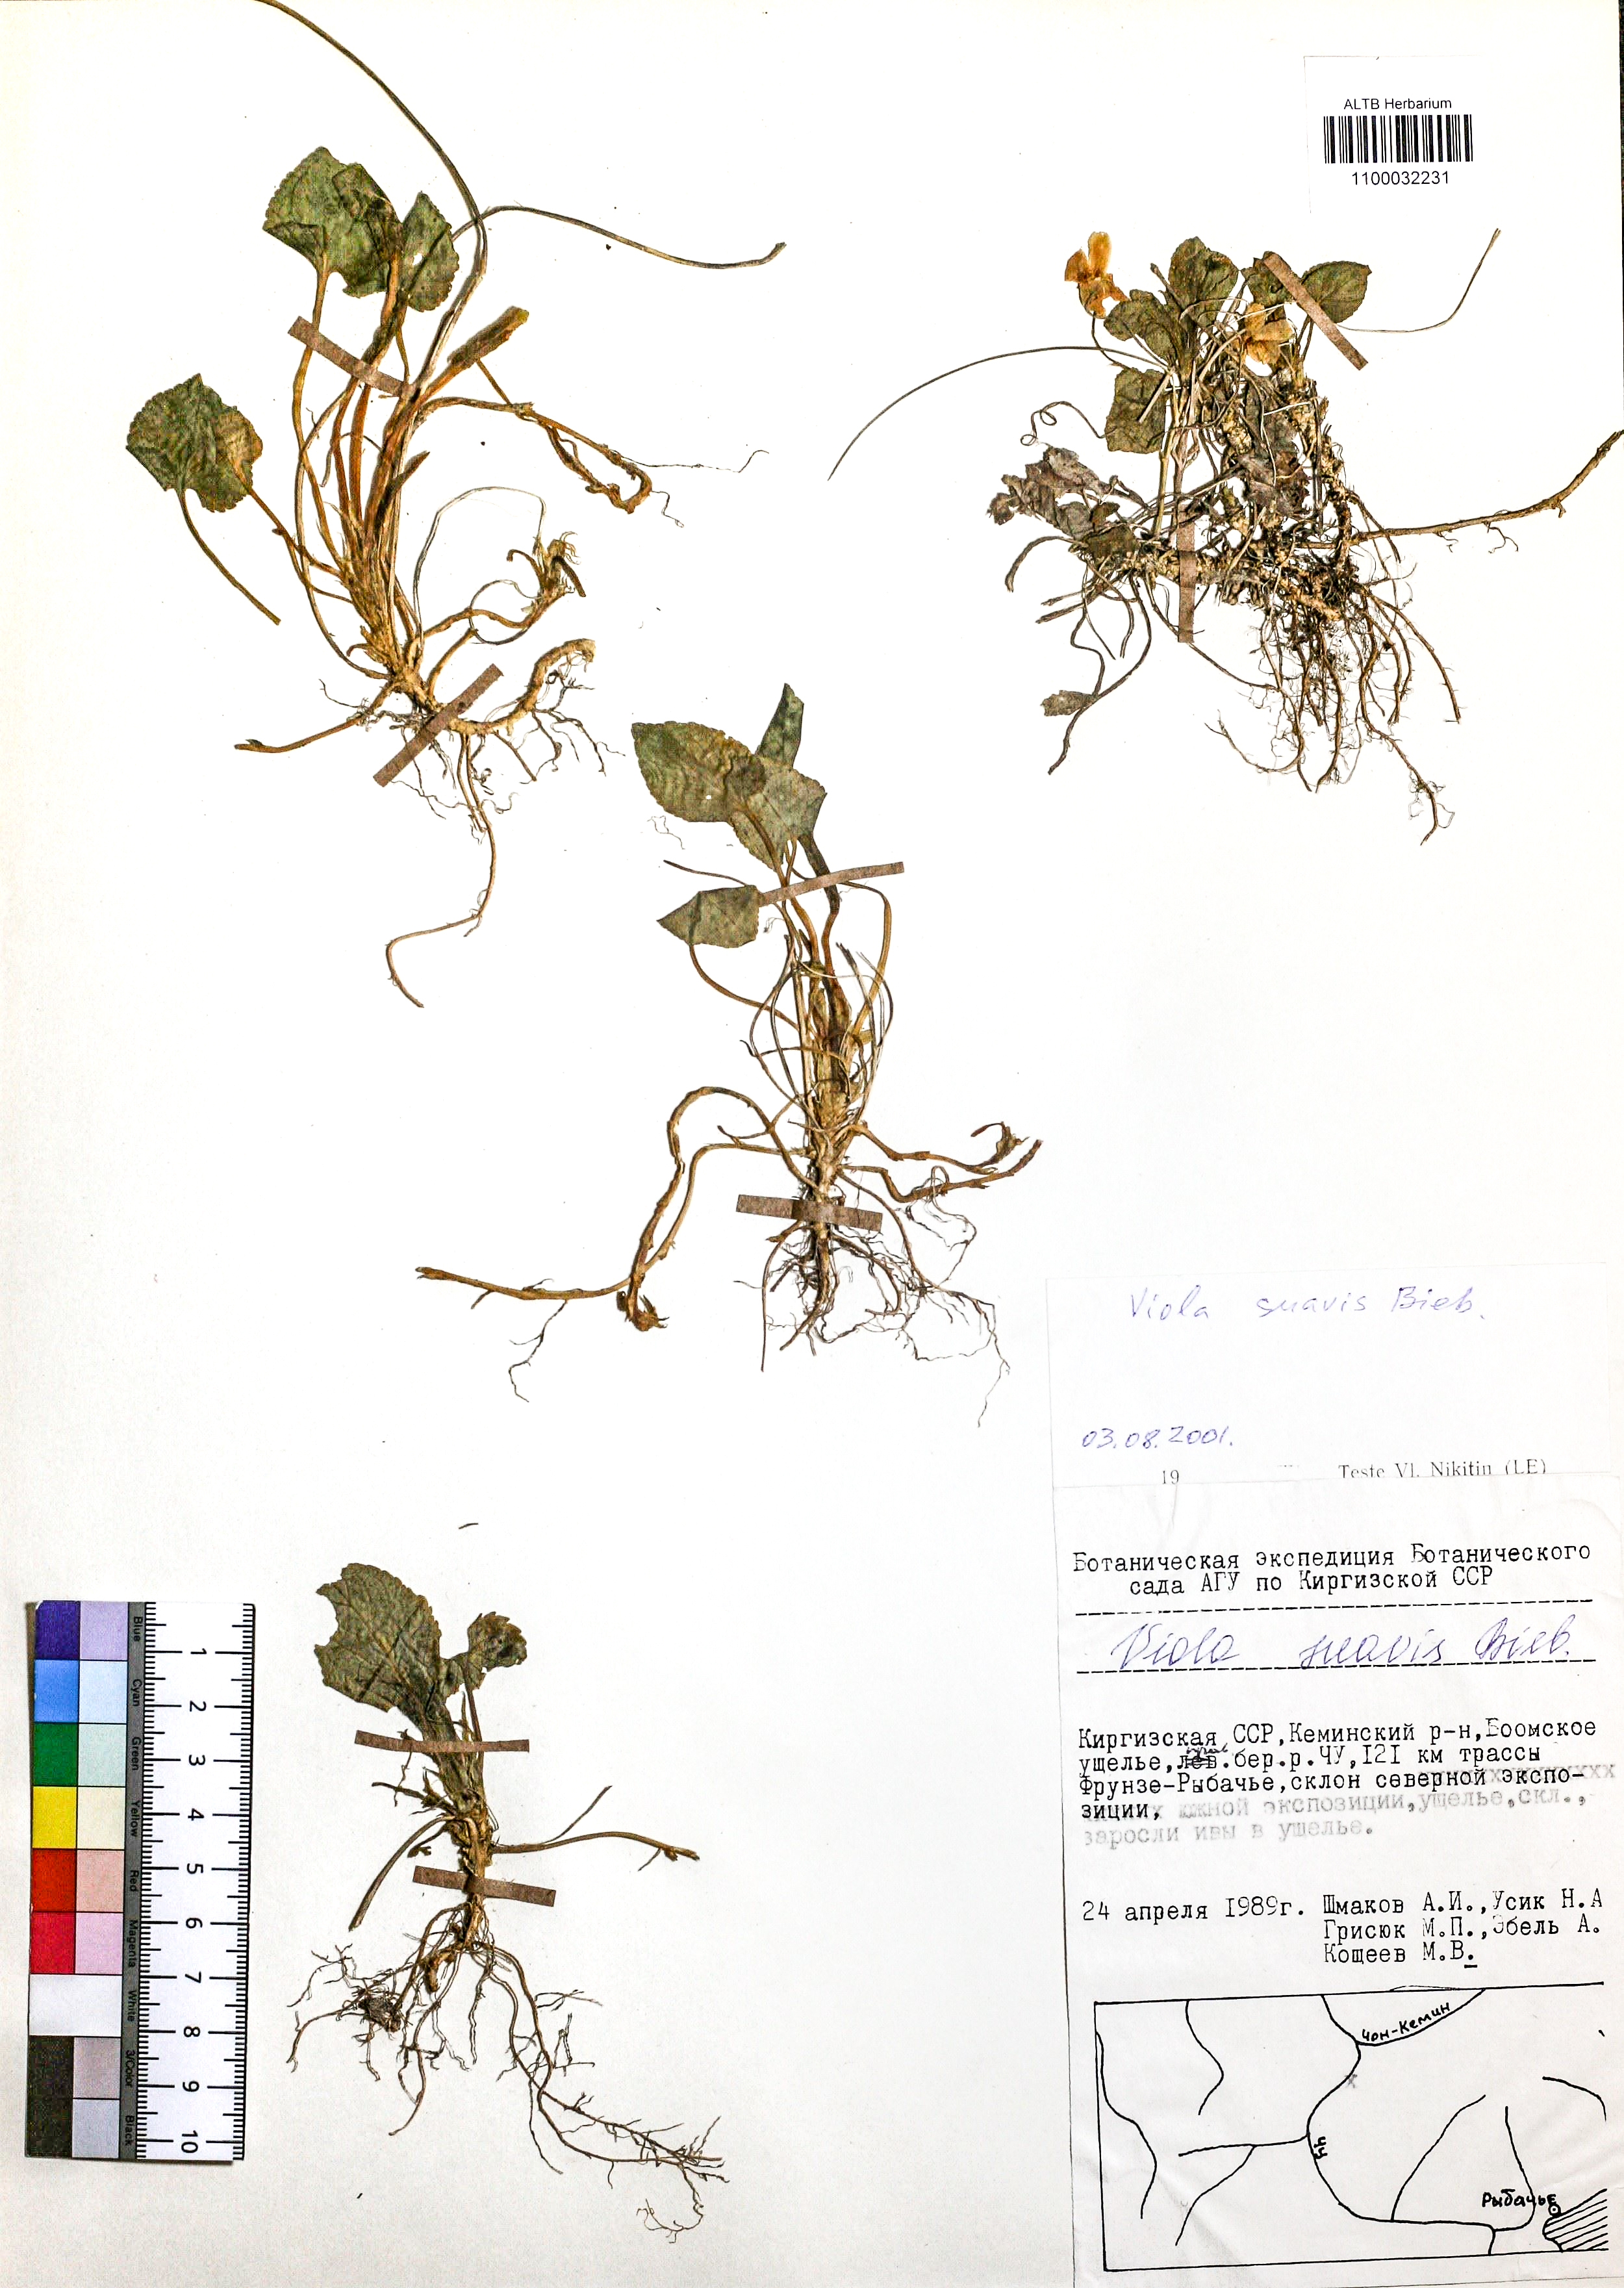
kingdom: Plantae
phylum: Tracheophyta
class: Magnoliopsida
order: Malpighiales
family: Violaceae
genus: Viola
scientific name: Viola suavis
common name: Russian violet
